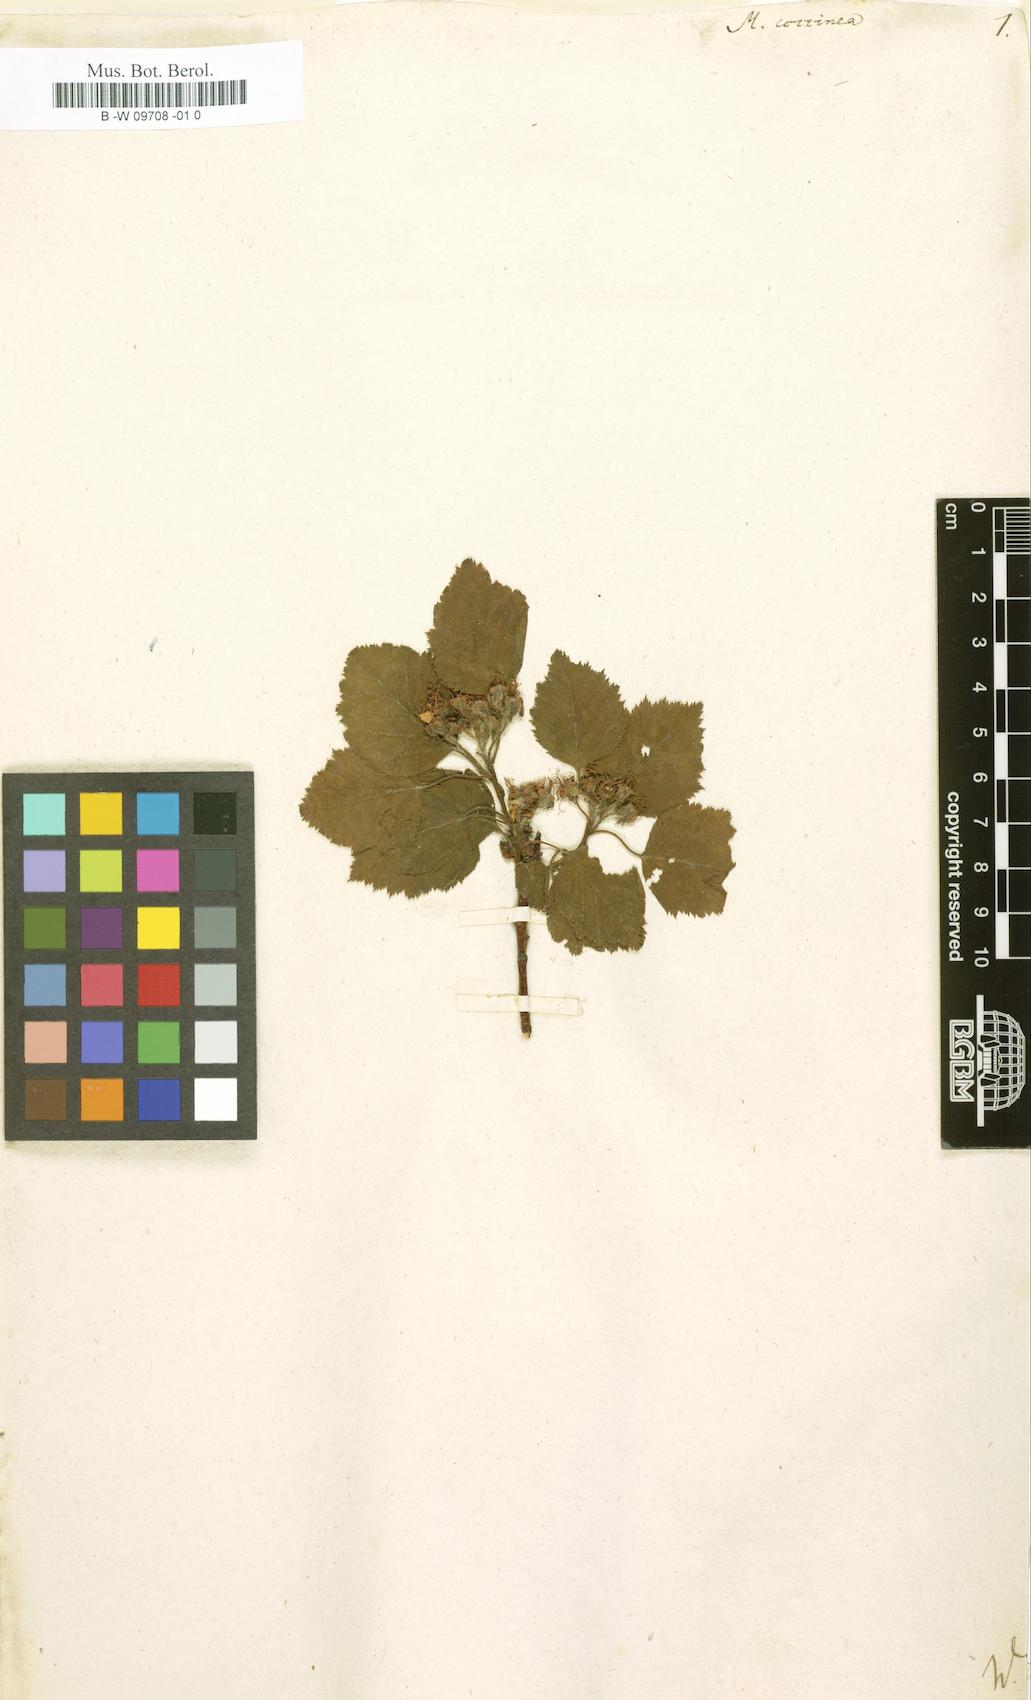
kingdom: Plantae
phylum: Tracheophyta
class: Magnoliopsida
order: Rosales
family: Rosaceae
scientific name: Rosaceae
